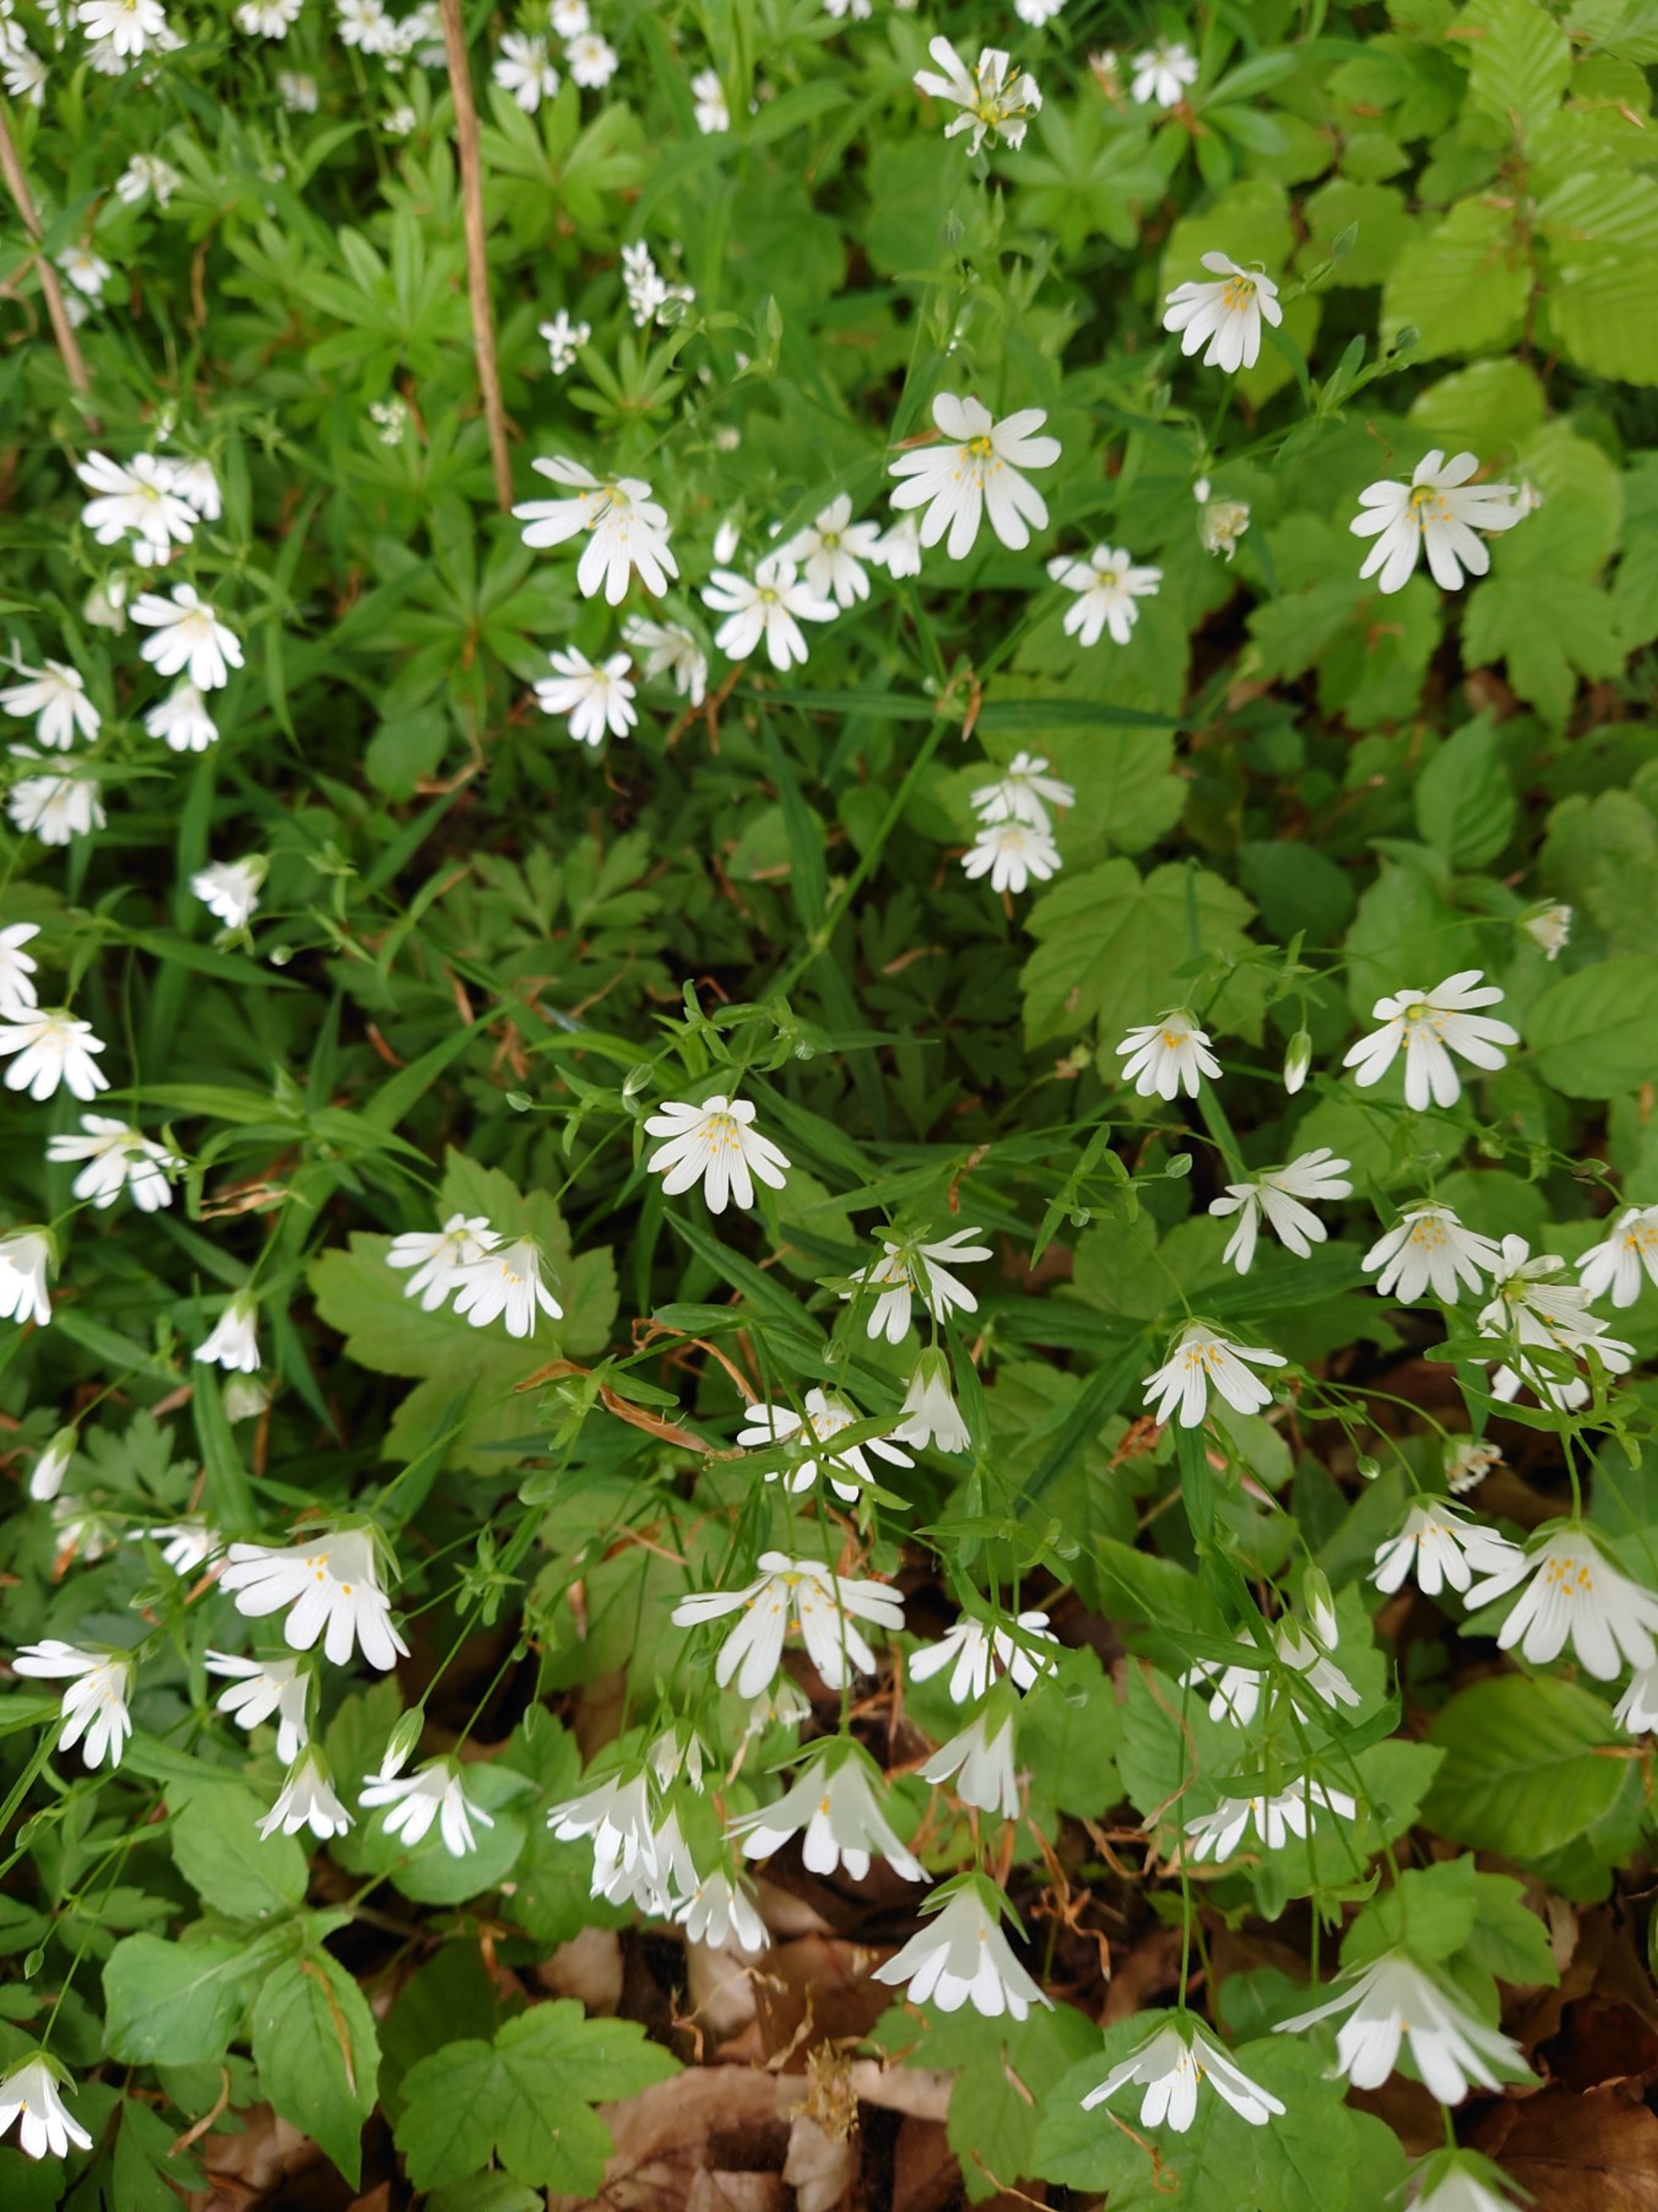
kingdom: Plantae
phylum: Tracheophyta
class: Magnoliopsida
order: Caryophyllales
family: Caryophyllaceae
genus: Rabelera
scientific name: Rabelera holostea
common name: Stor fladstjerne
